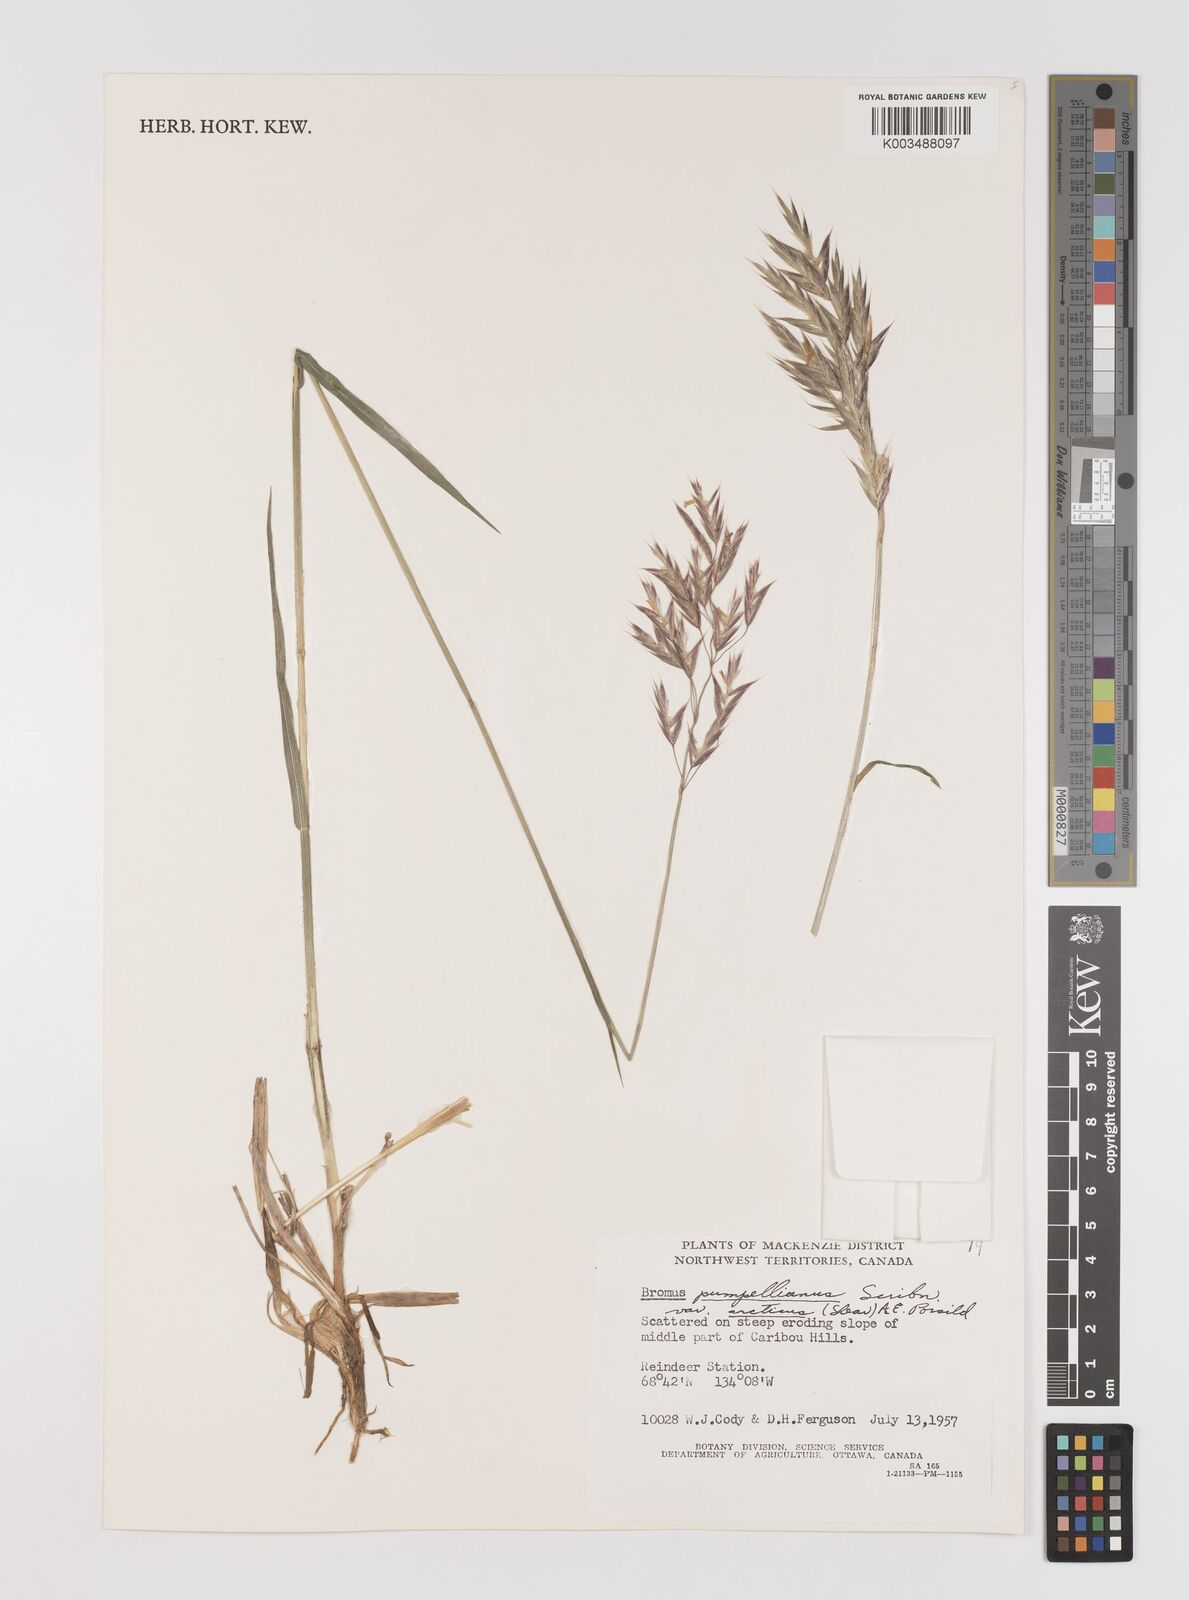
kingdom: Plantae
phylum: Tracheophyta
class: Liliopsida
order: Poales
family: Poaceae
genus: Bromus
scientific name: Bromus pumpellianus
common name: Pumpelly's brome
